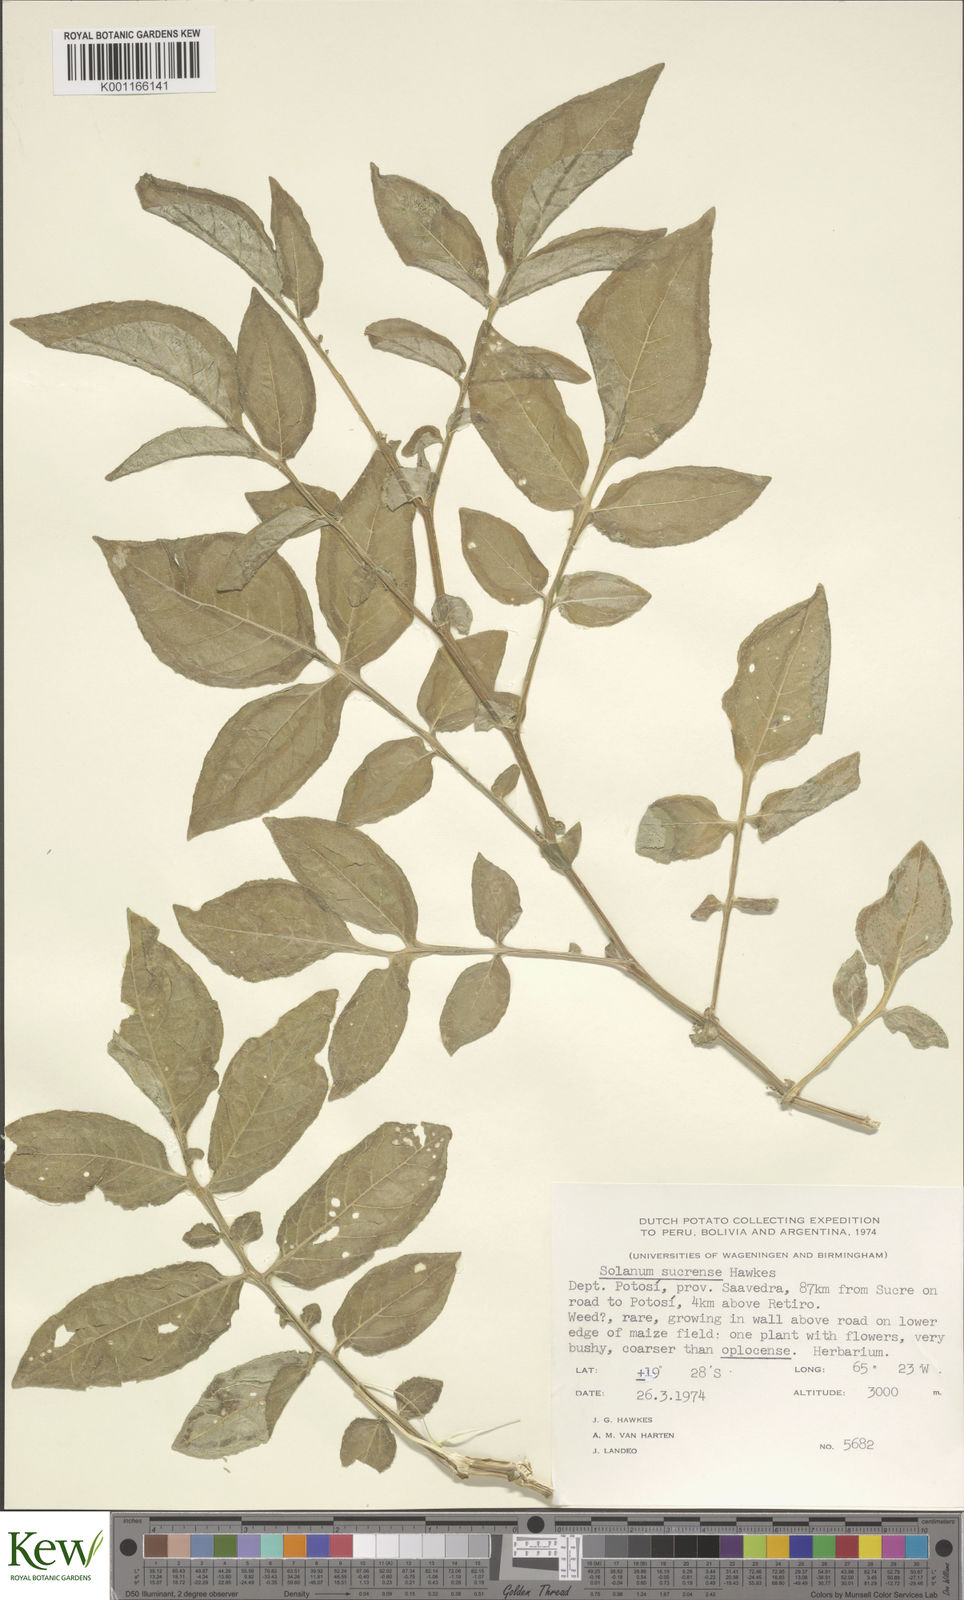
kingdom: Plantae
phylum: Tracheophyta
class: Magnoliopsida
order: Solanales
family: Solanaceae
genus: Solanum
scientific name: Solanum brevicaule
